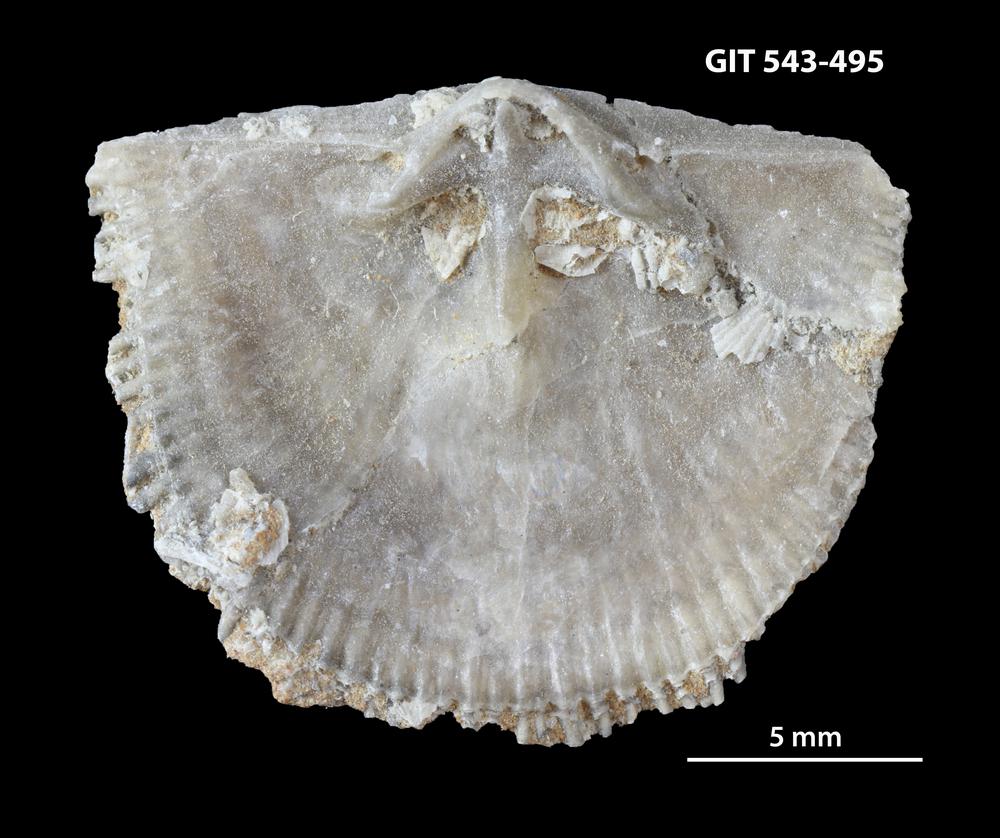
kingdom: Animalia
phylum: Brachiopoda
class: Rhynchonellata
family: Clitambonitidae
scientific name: Clitambonitidae
